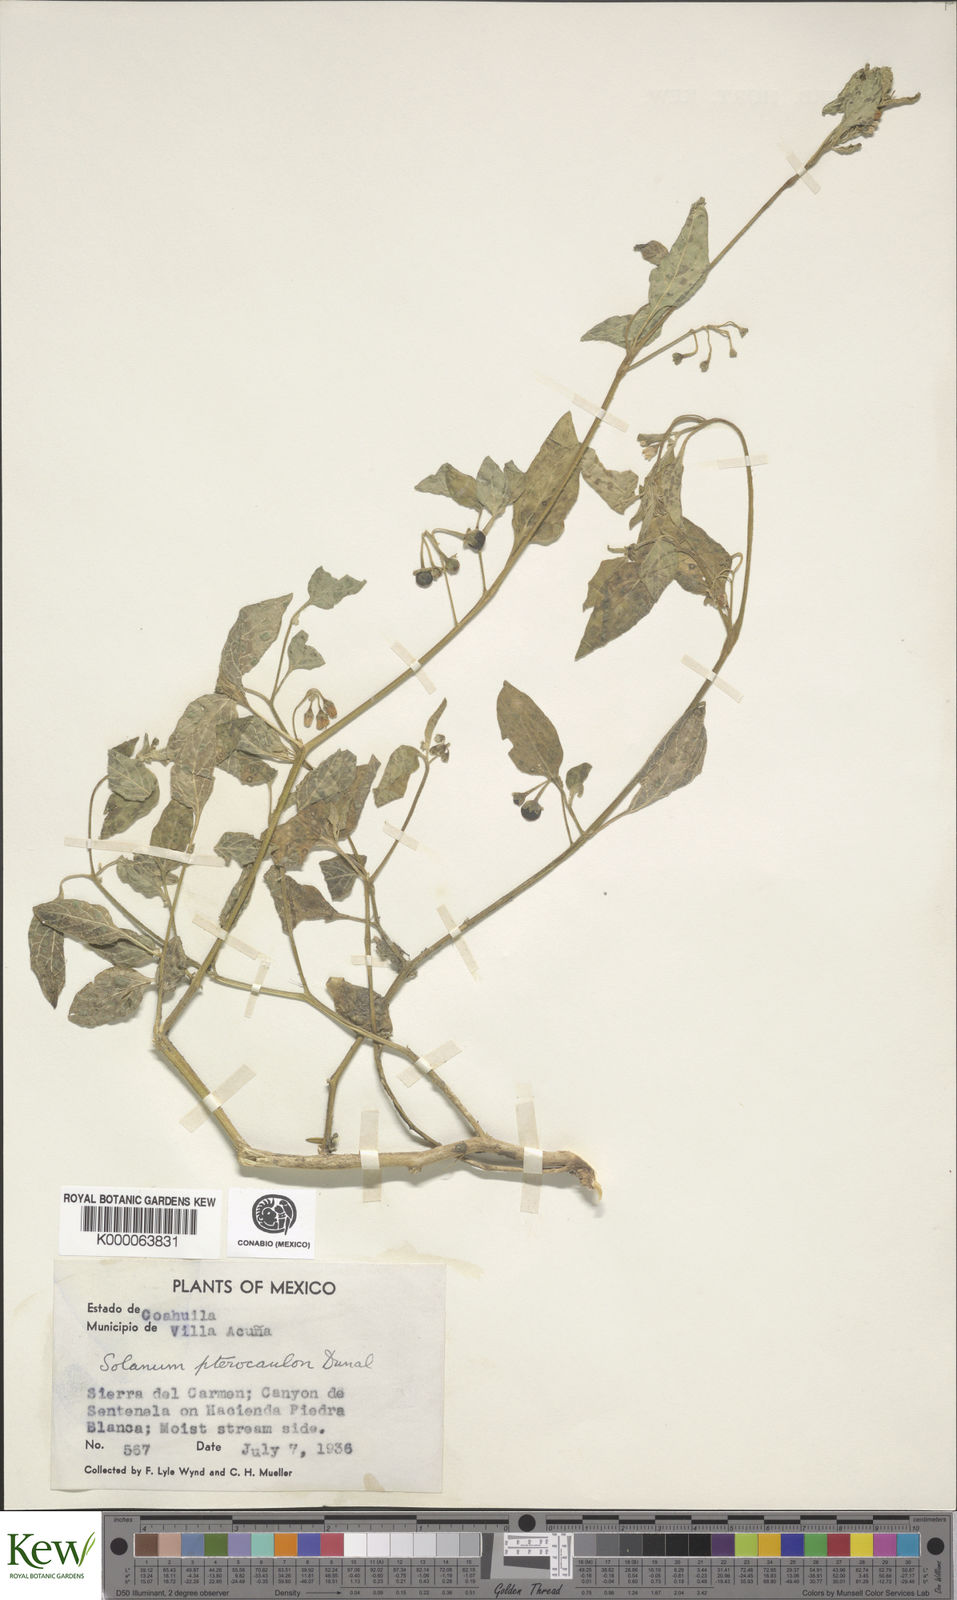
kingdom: Plantae
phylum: Tracheophyta
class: Magnoliopsida
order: Solanales
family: Solanaceae
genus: Solanum
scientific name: Solanum
